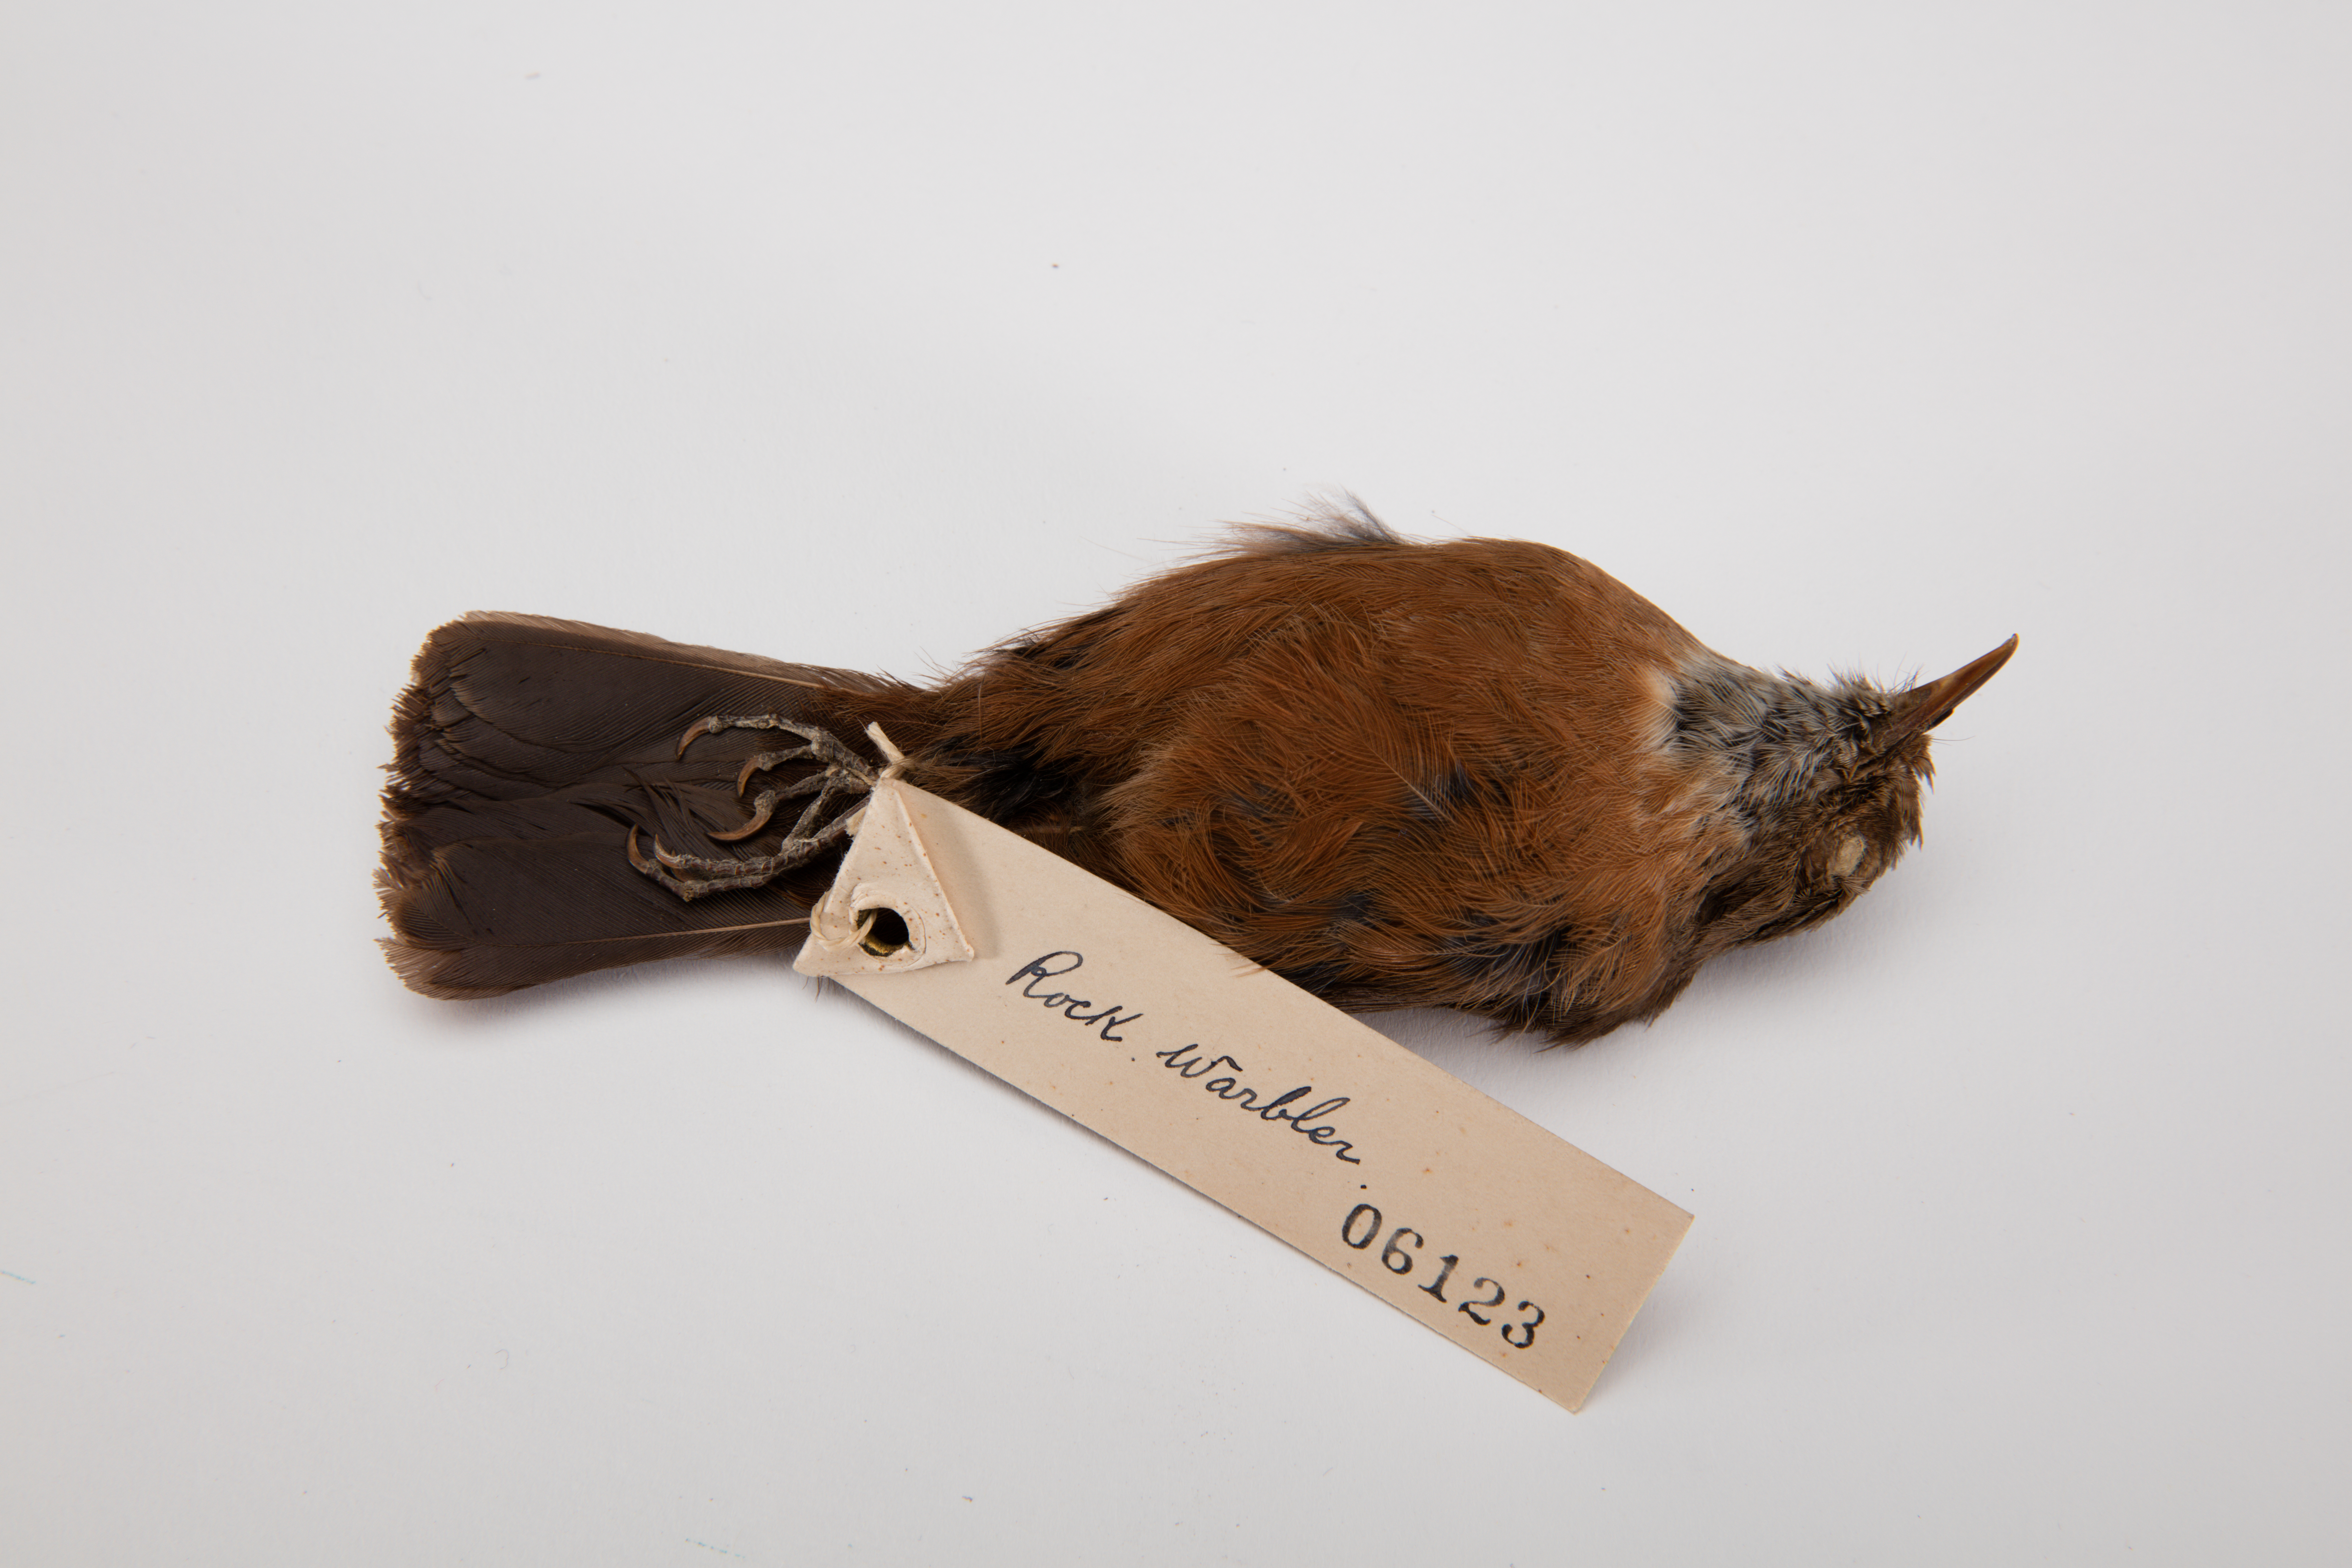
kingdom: Animalia
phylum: Chordata
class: Aves
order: Passeriformes
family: Acanthizidae
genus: Origma
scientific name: Origma solitaria
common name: Rockwarbler
